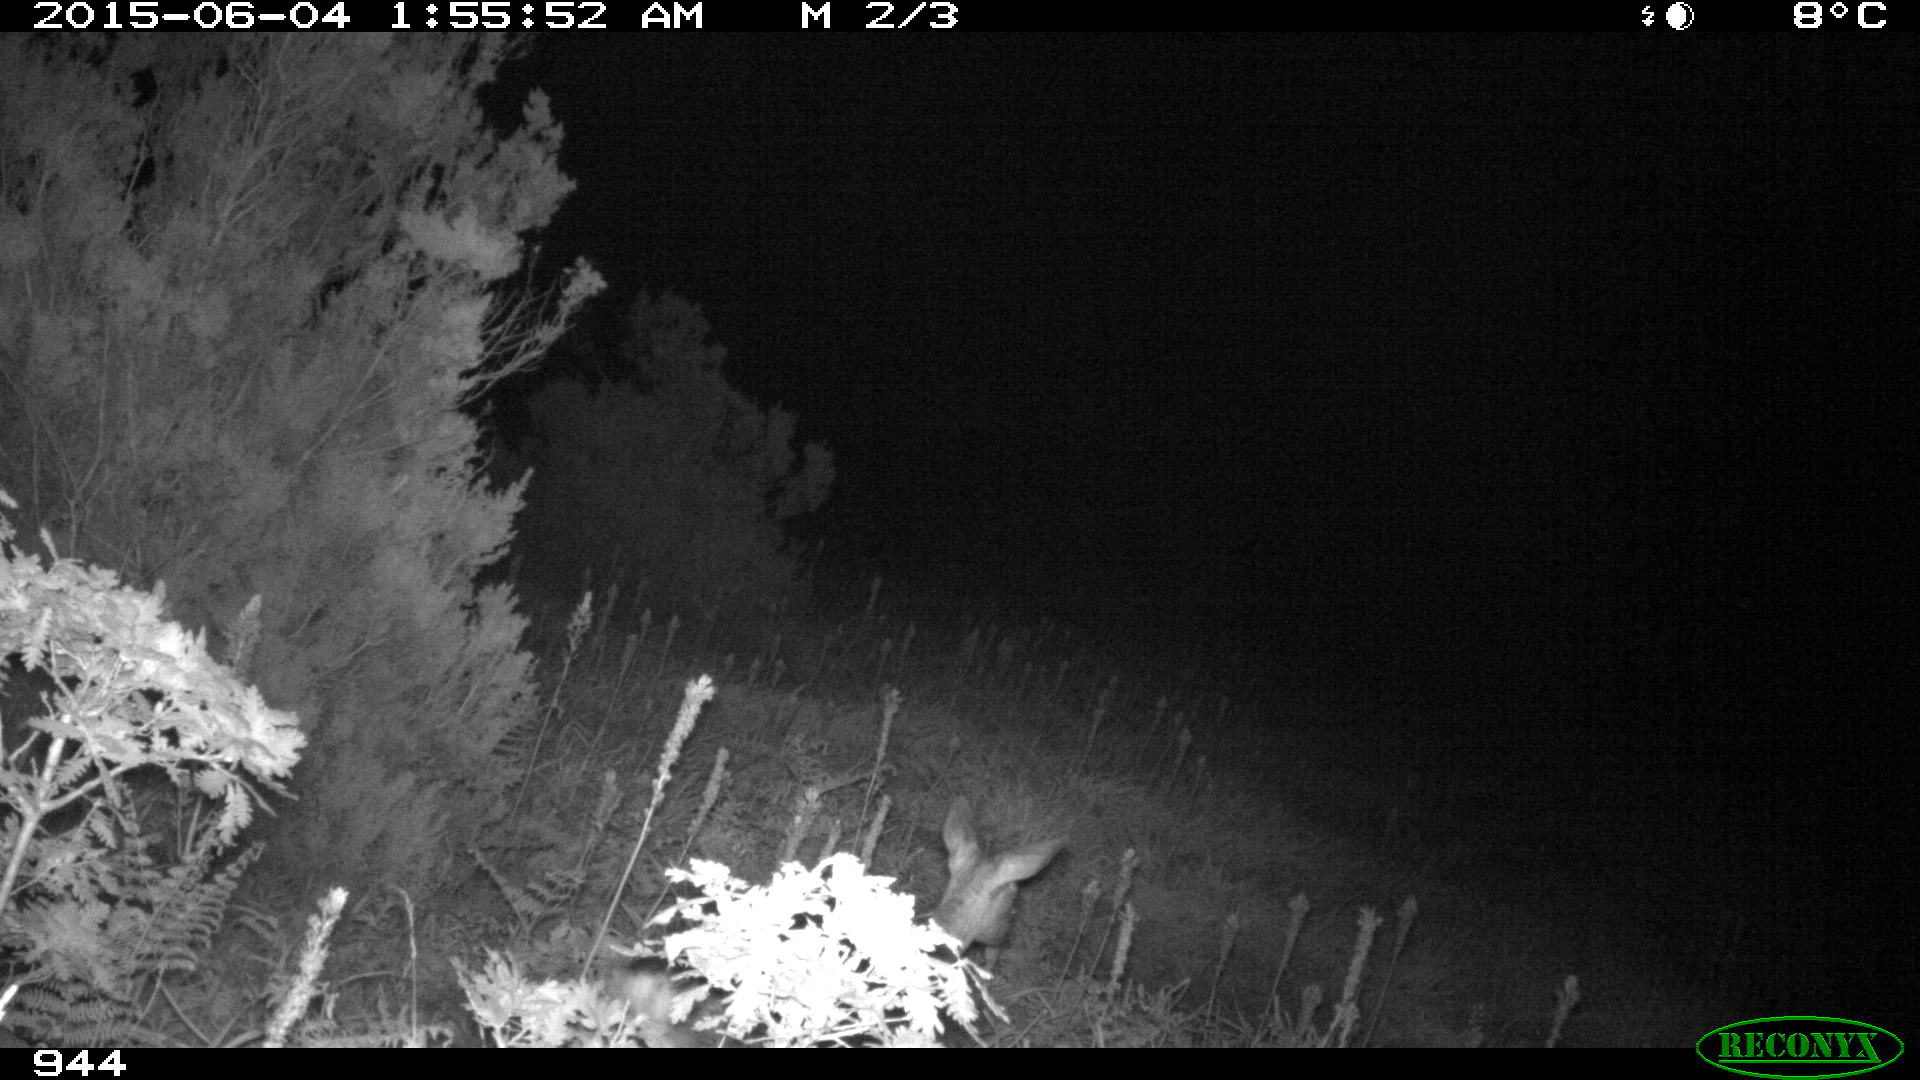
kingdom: Animalia
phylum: Chordata
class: Mammalia
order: Artiodactyla
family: Cervidae
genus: Capreolus
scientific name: Capreolus capreolus
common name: Western roe deer
